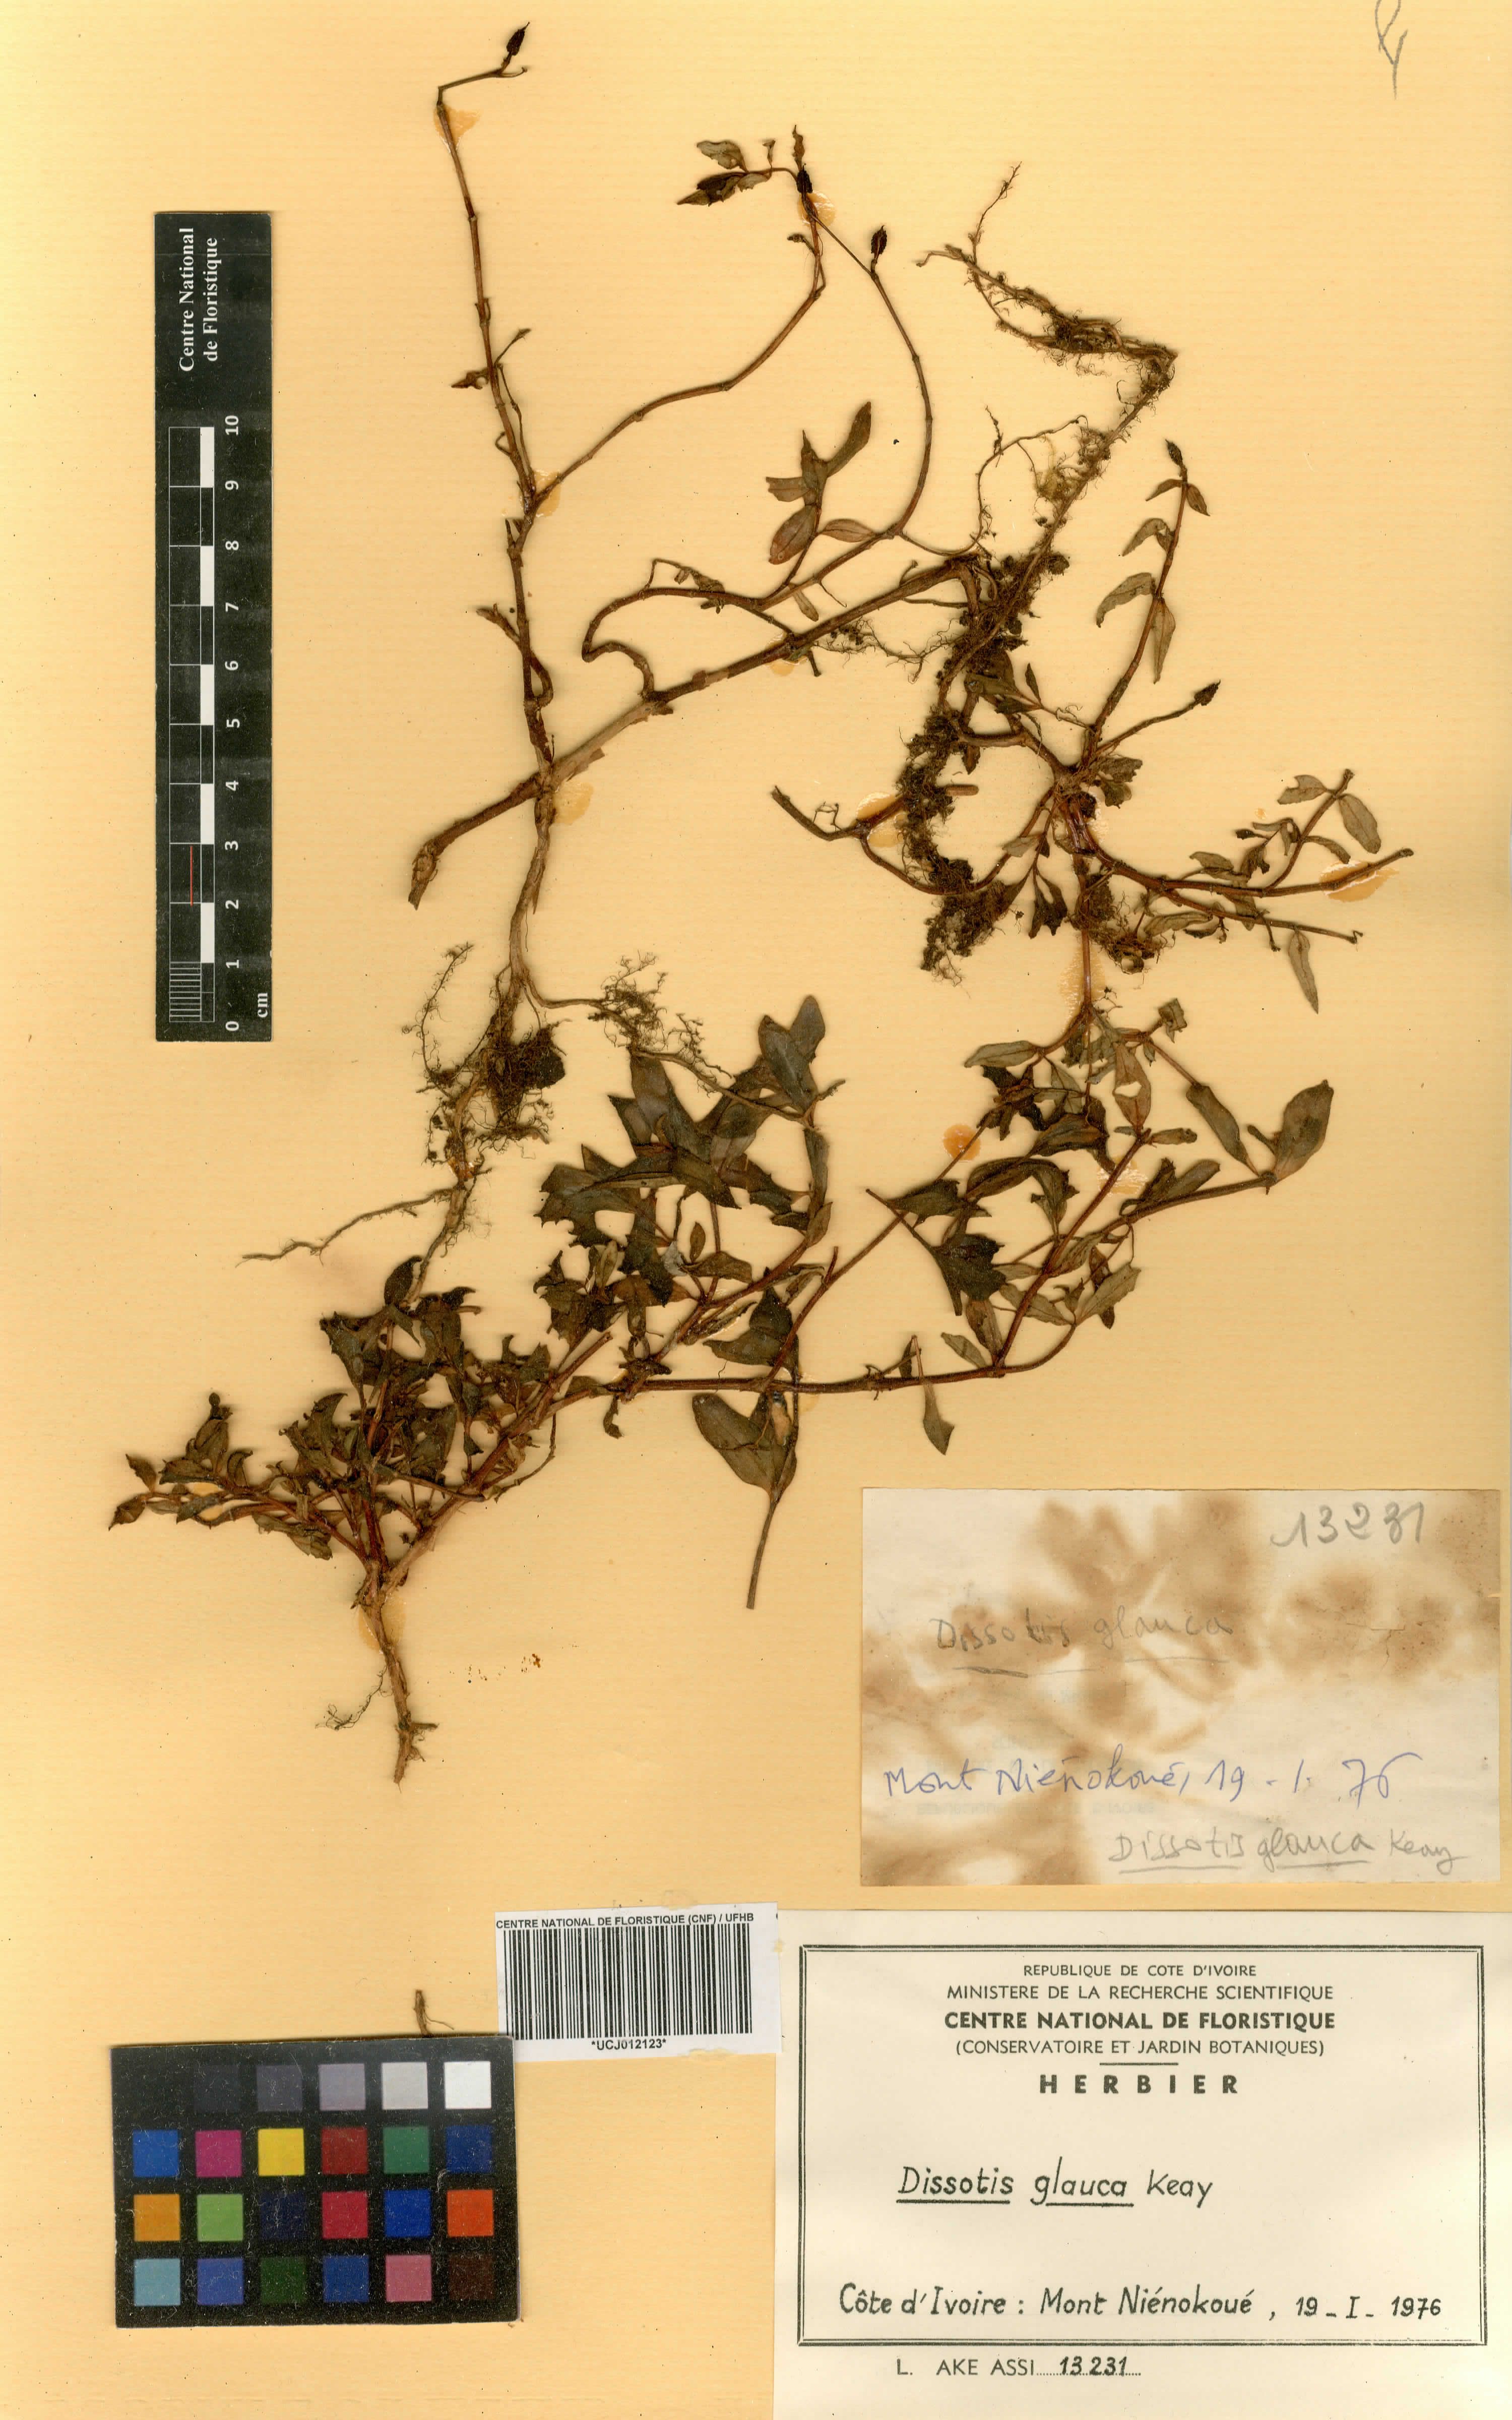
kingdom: Plantae
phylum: Tracheophyta
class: Magnoliopsida
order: Myrtales
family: Melastomataceae
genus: Guyonia
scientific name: Guyonia rupicola
